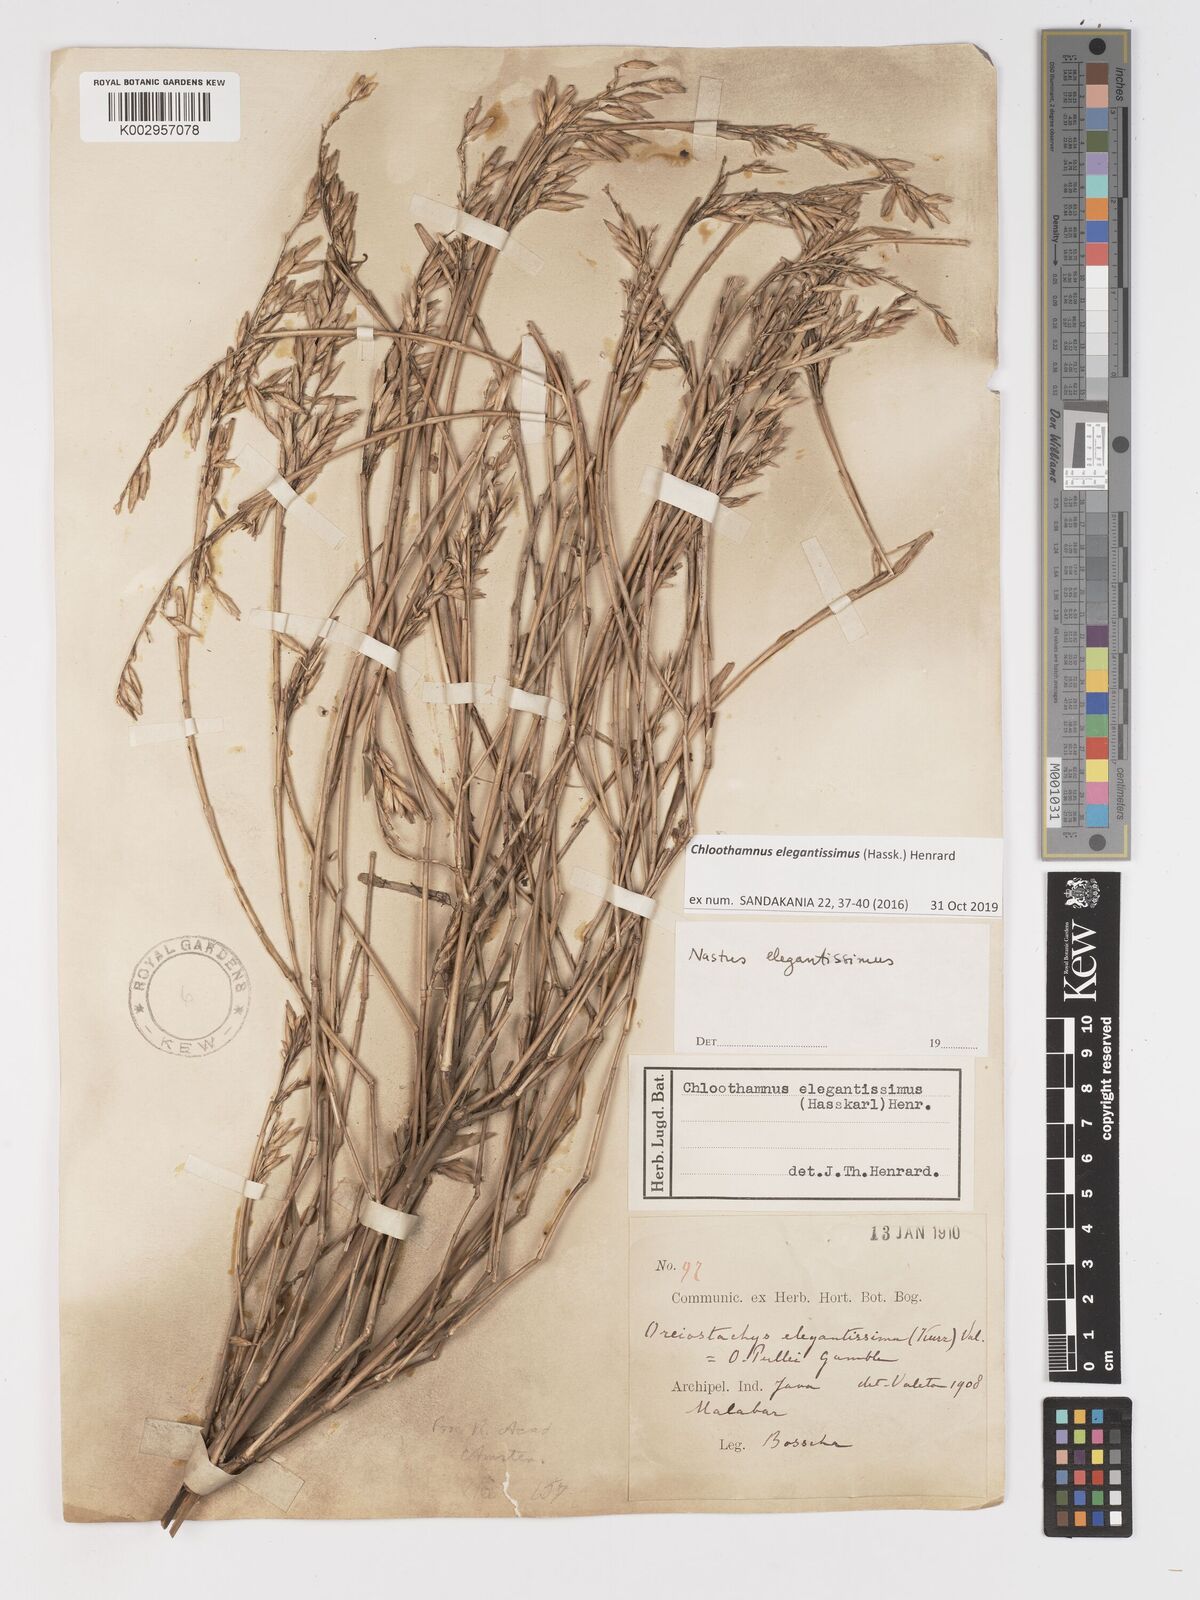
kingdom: Plantae
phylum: Tracheophyta
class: Liliopsida
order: Poales
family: Poaceae
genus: Chloothamnus
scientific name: Chloothamnus elegantissimus
